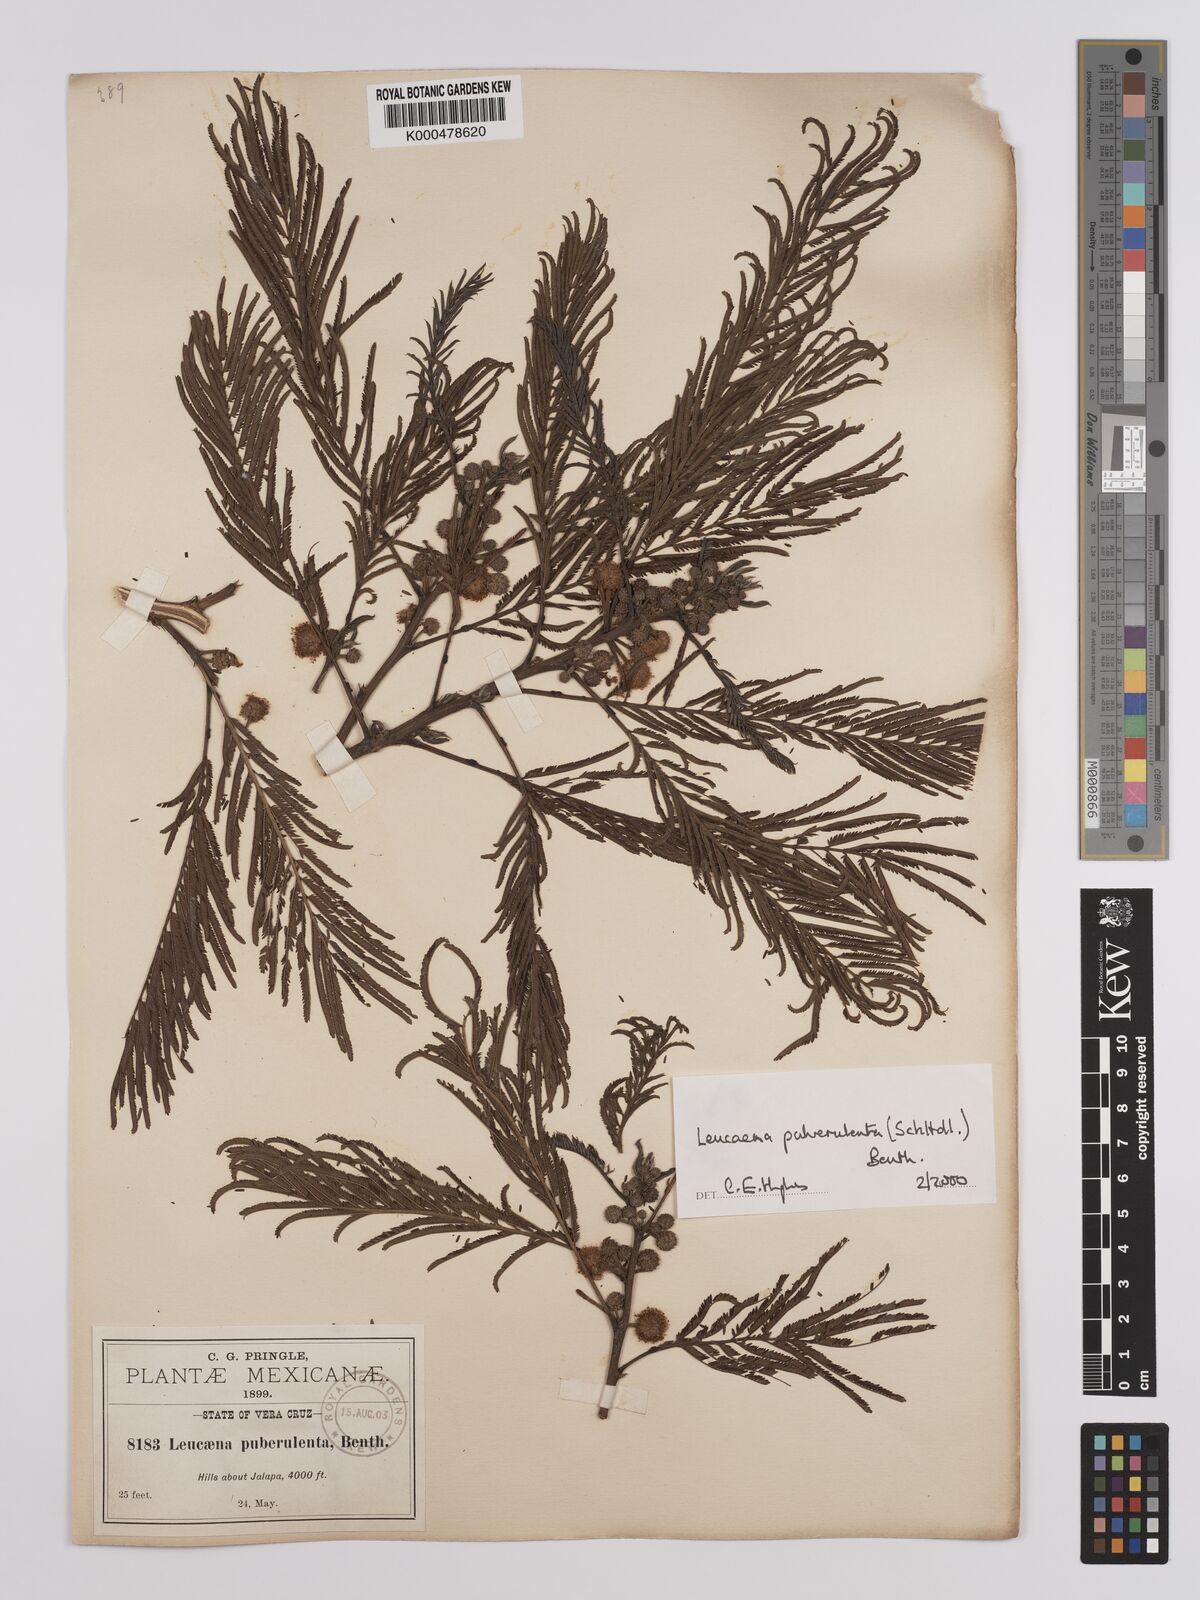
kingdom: Plantae
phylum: Tracheophyta
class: Magnoliopsida
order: Fabales
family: Fabaceae
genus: Leucaena
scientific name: Leucaena pulverulenta
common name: Great leadtree
